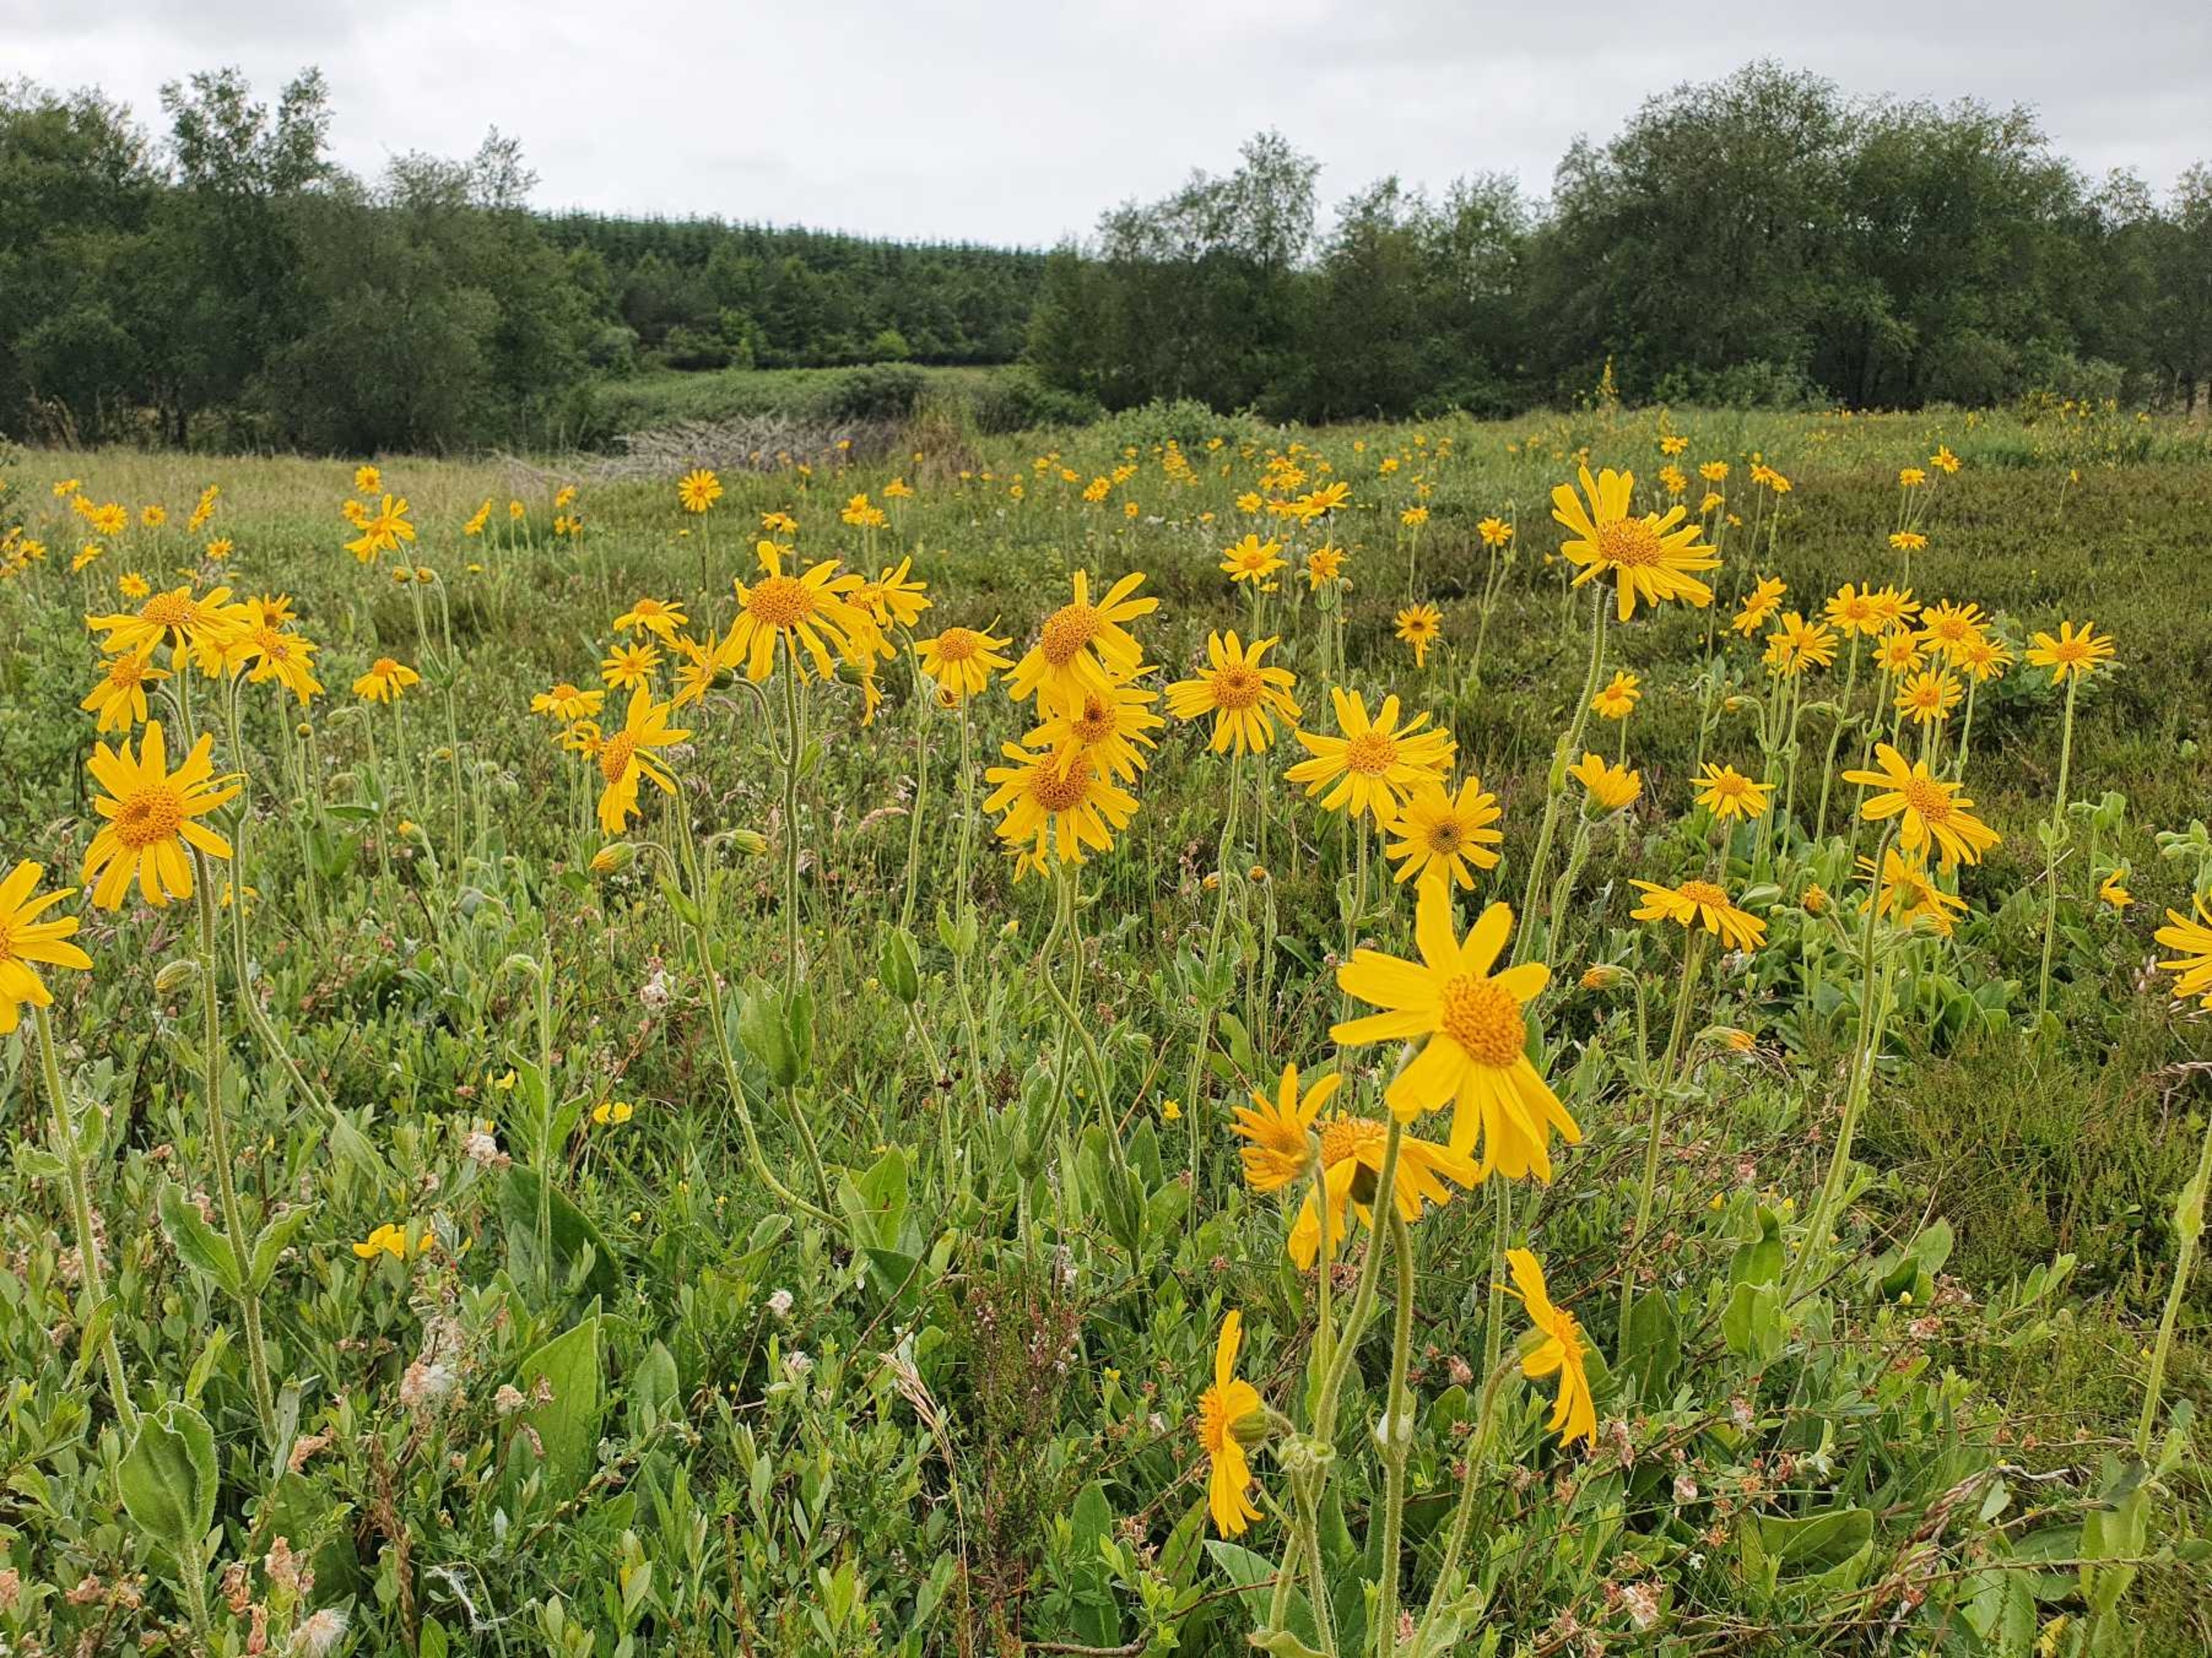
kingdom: Plantae
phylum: Tracheophyta
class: Magnoliopsida
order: Asterales
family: Asteraceae
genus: Arnica
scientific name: Arnica montana
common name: Guldblomme
